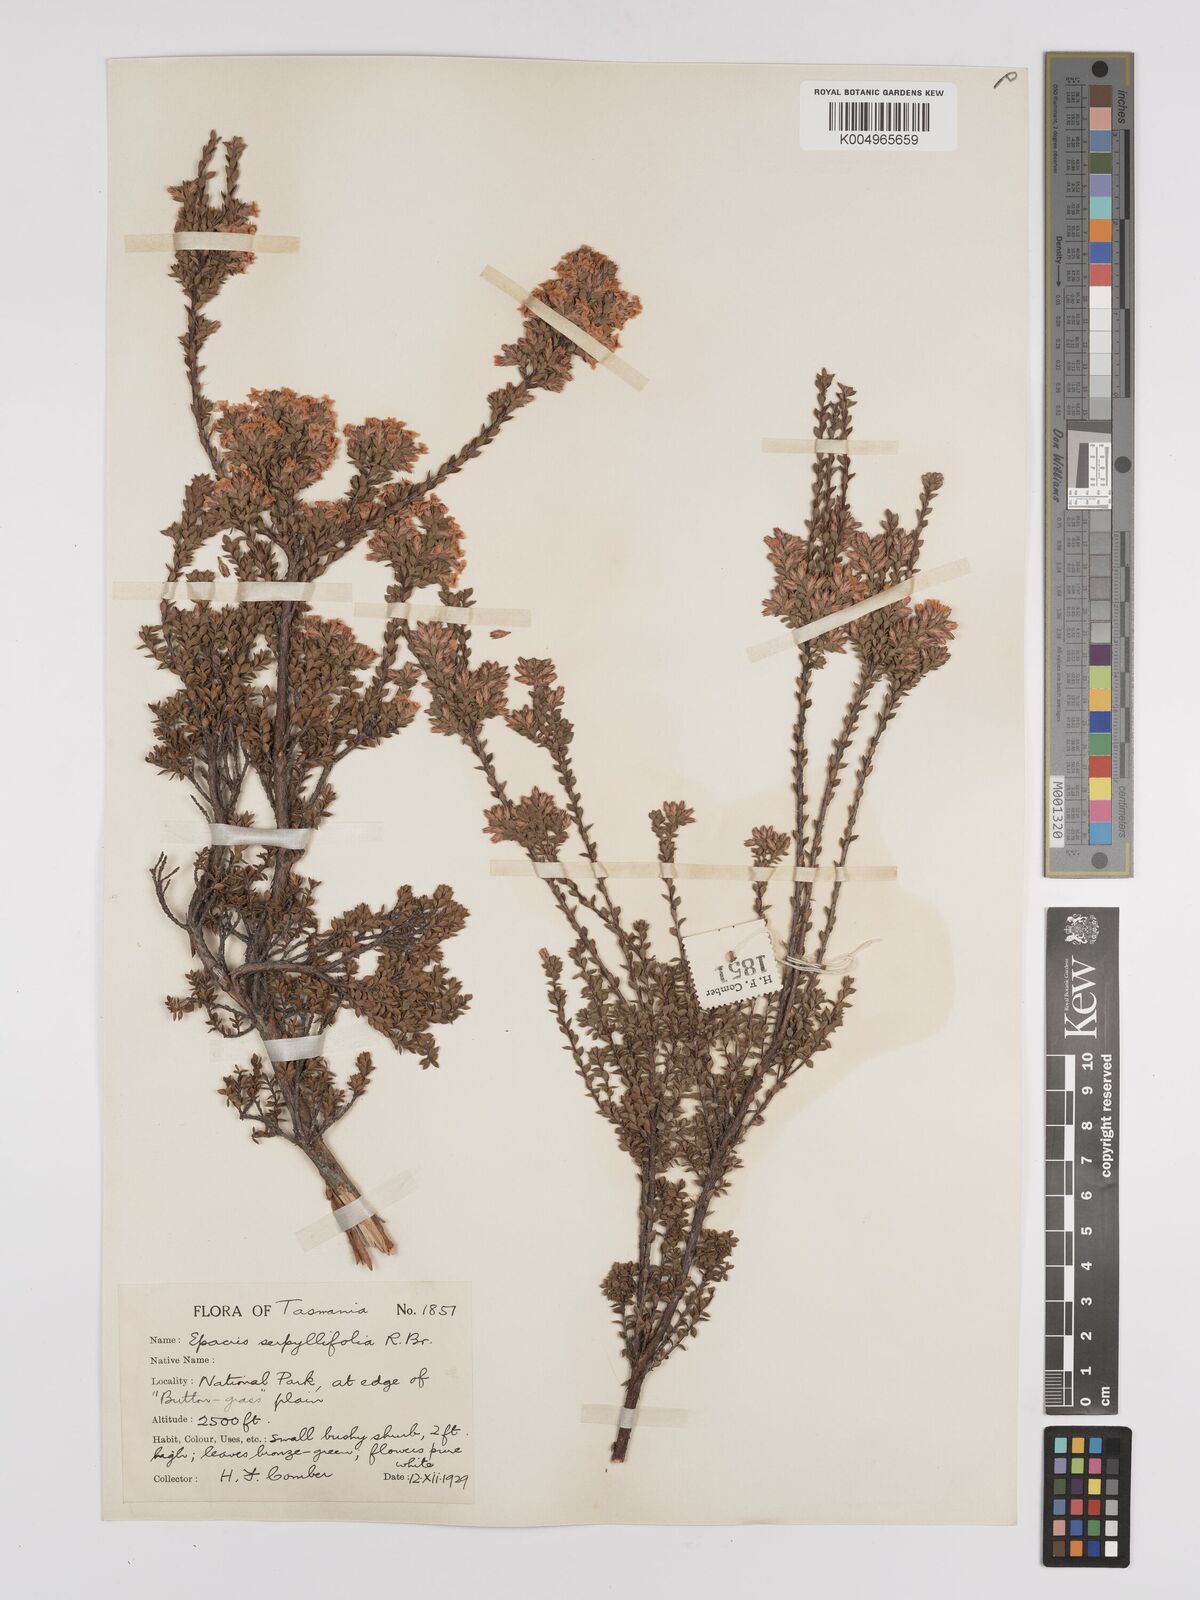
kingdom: Plantae
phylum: Tracheophyta
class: Magnoliopsida
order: Ericales
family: Ericaceae
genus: Epacris
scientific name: Epacris serpyllifolia
